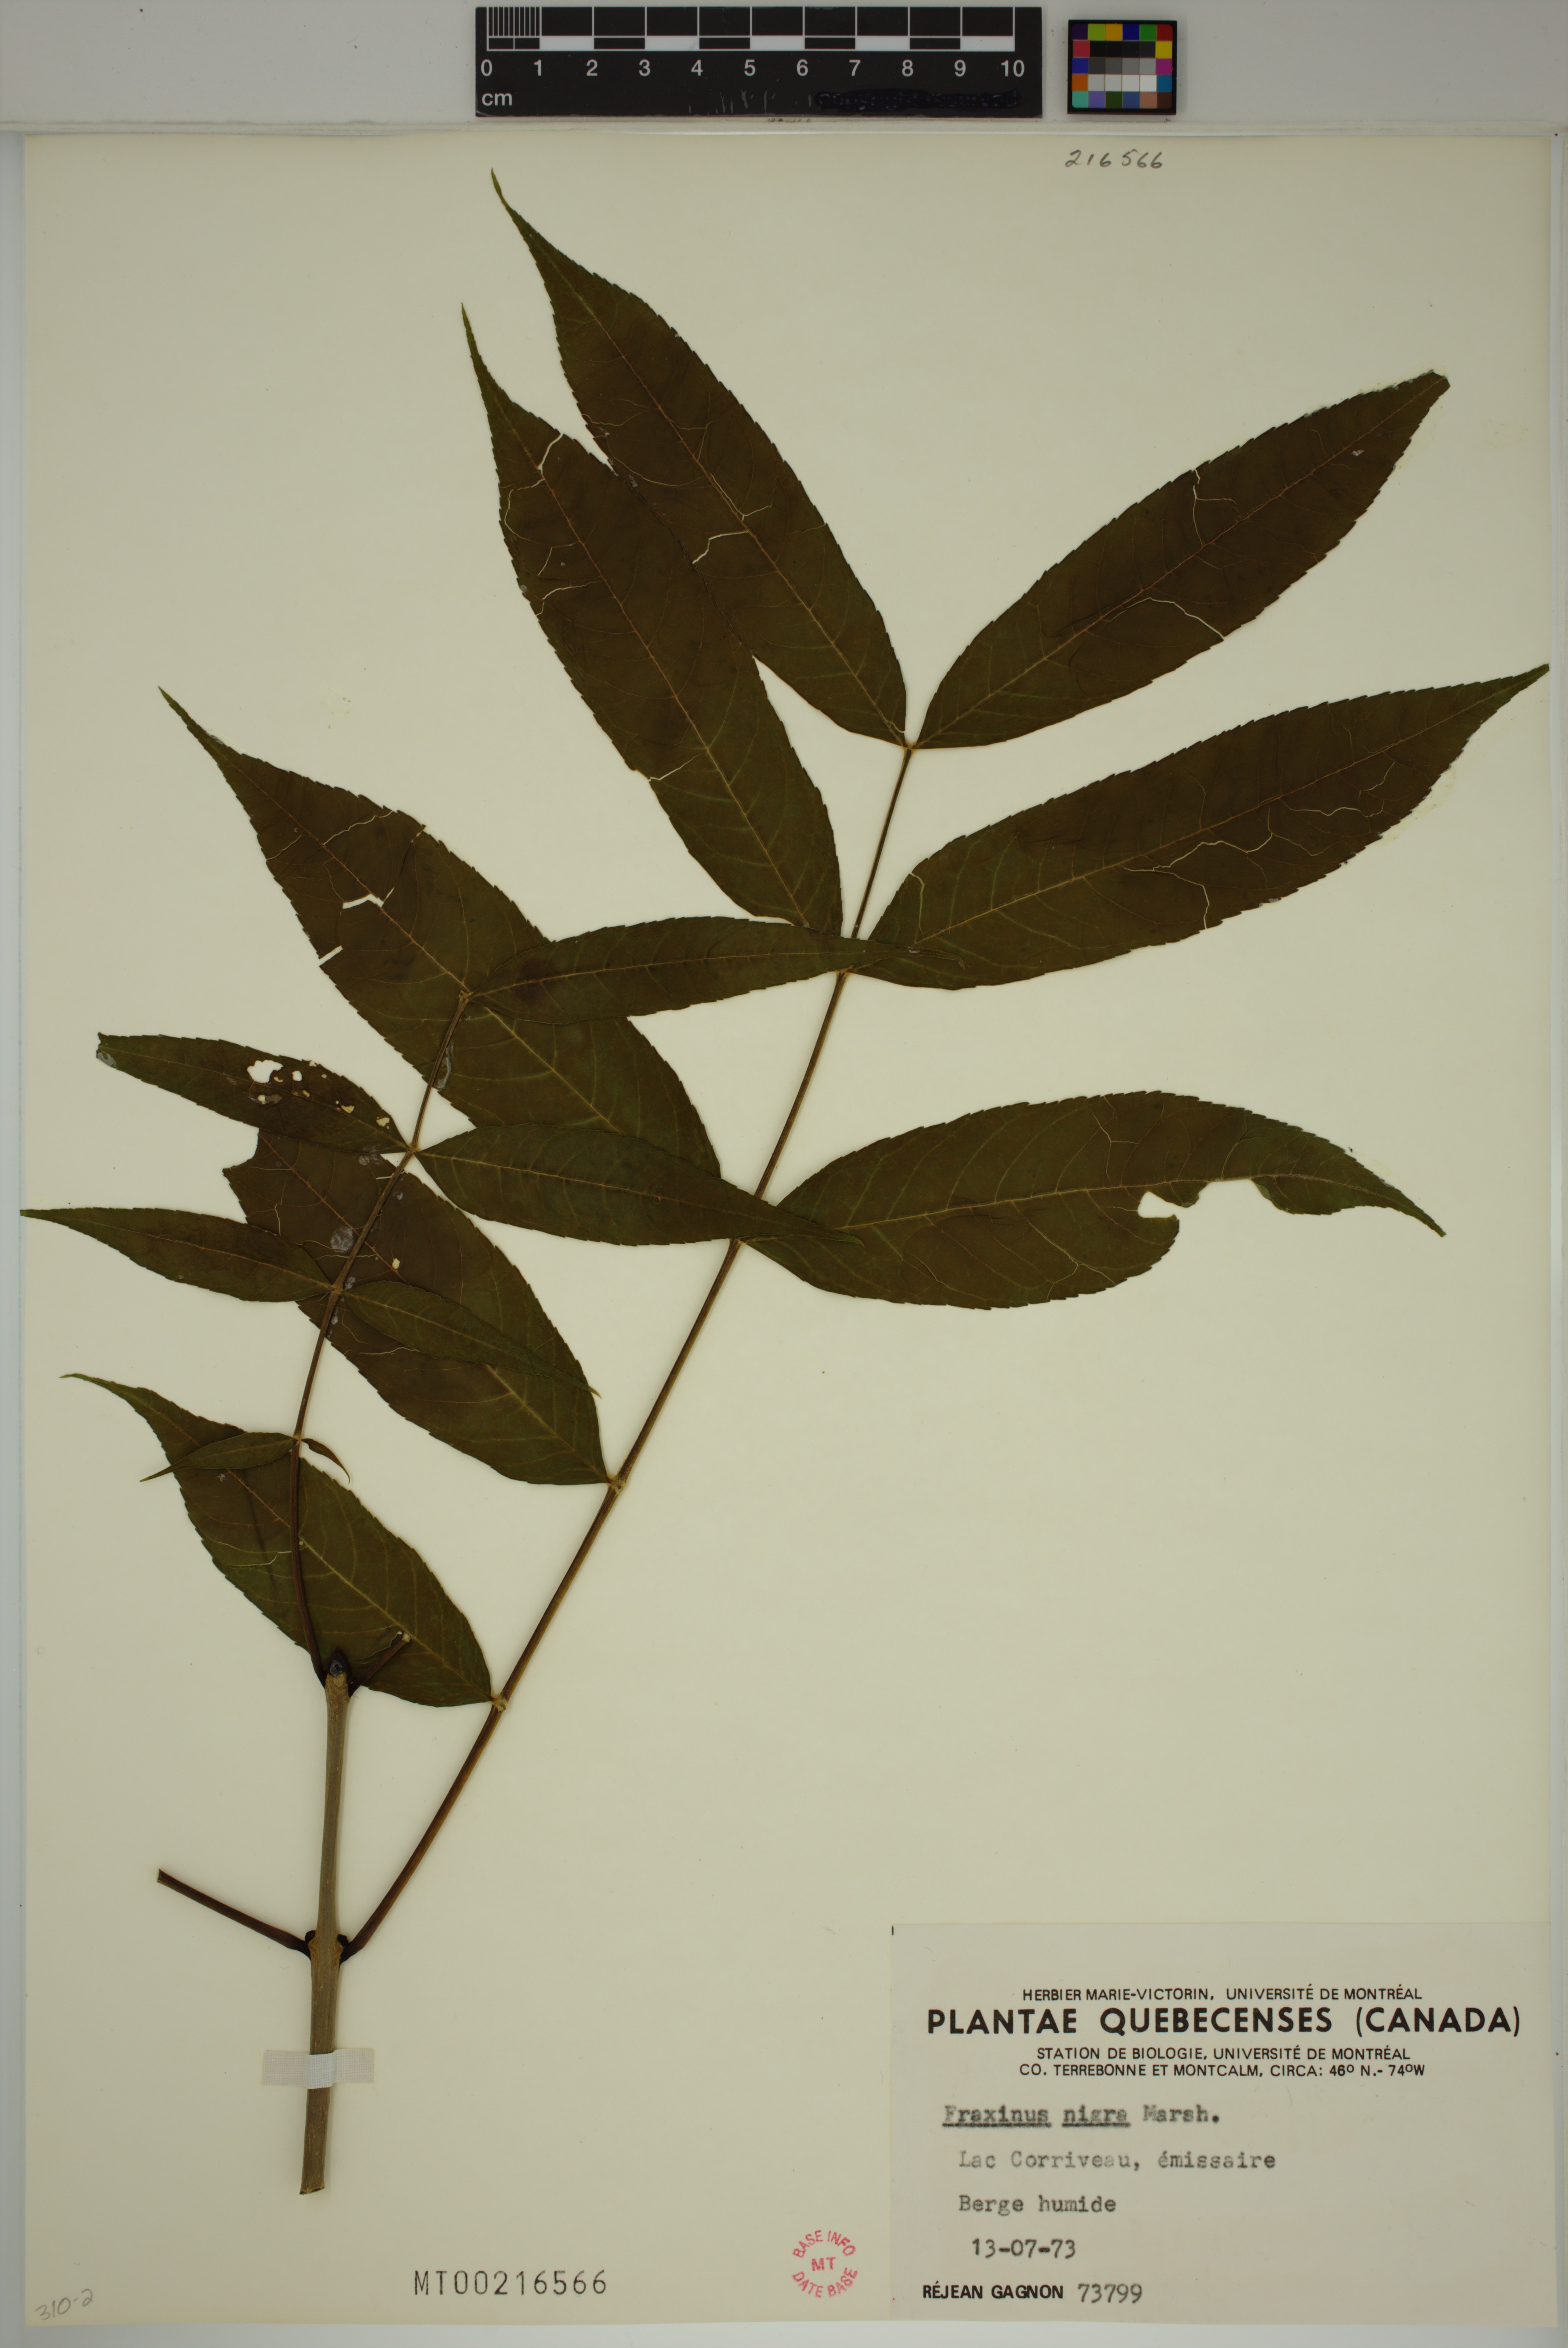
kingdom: Plantae
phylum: Tracheophyta
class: Magnoliopsida
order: Lamiales
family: Oleaceae
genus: Fraxinus
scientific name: Fraxinus nigra
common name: Black ash
